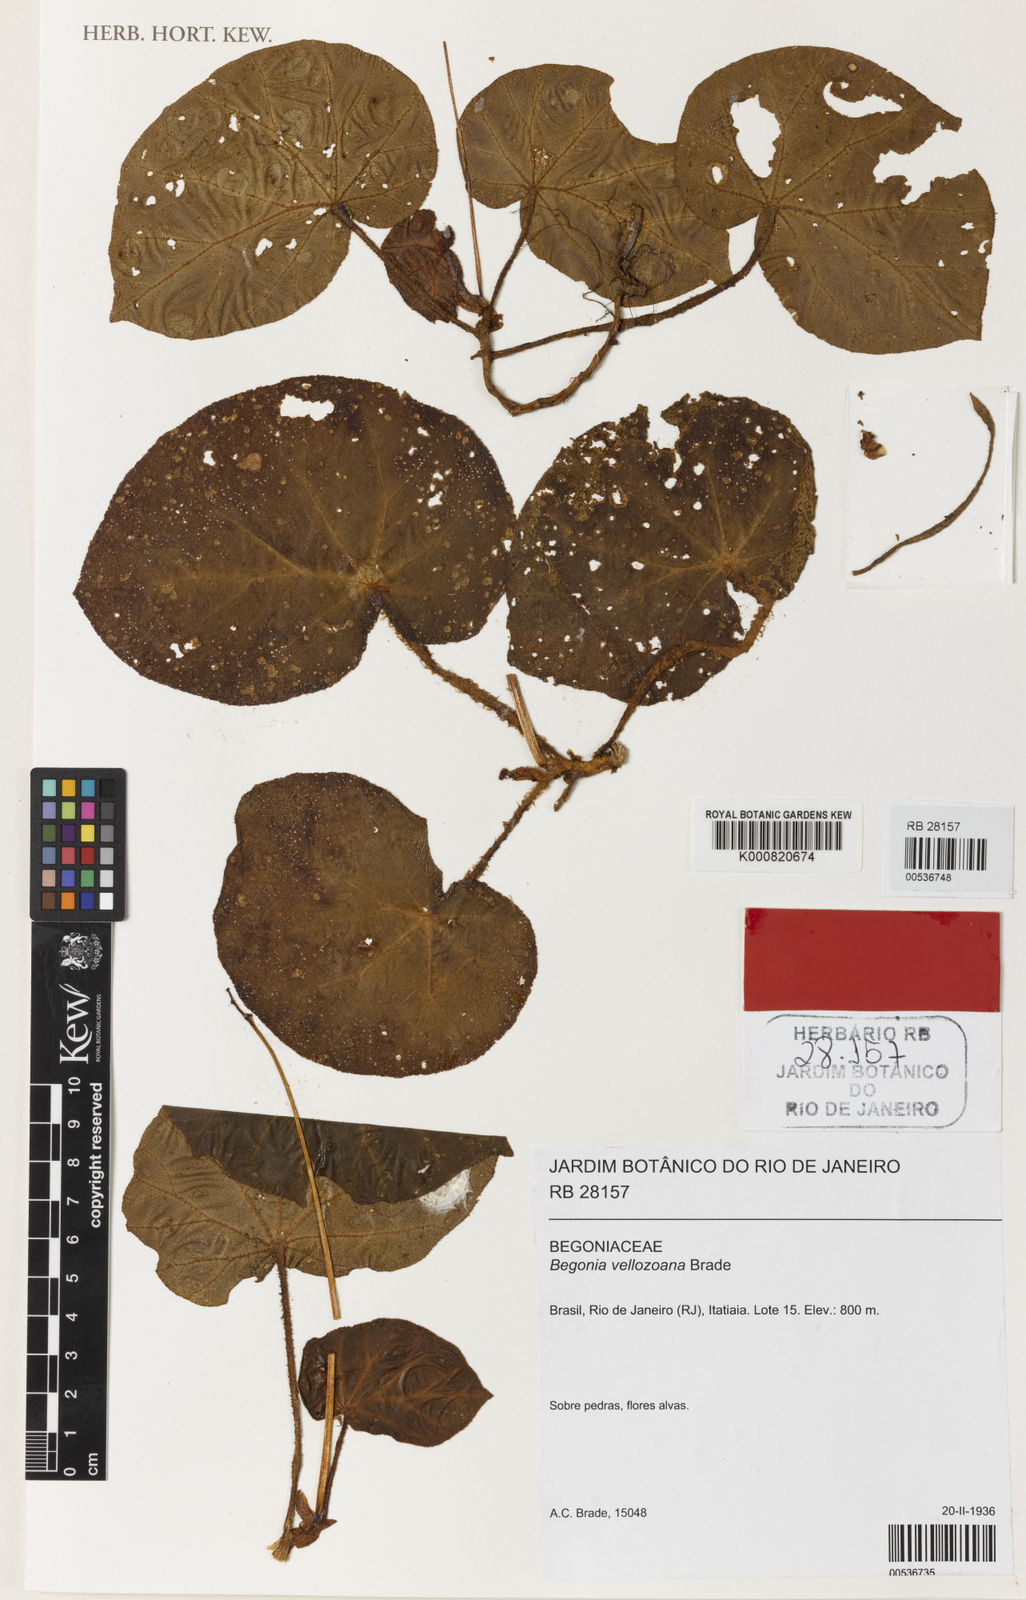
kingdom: Plantae
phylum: Tracheophyta
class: Magnoliopsida
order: Cucurbitales
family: Begoniaceae
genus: Begonia
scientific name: Begonia olsoniae
